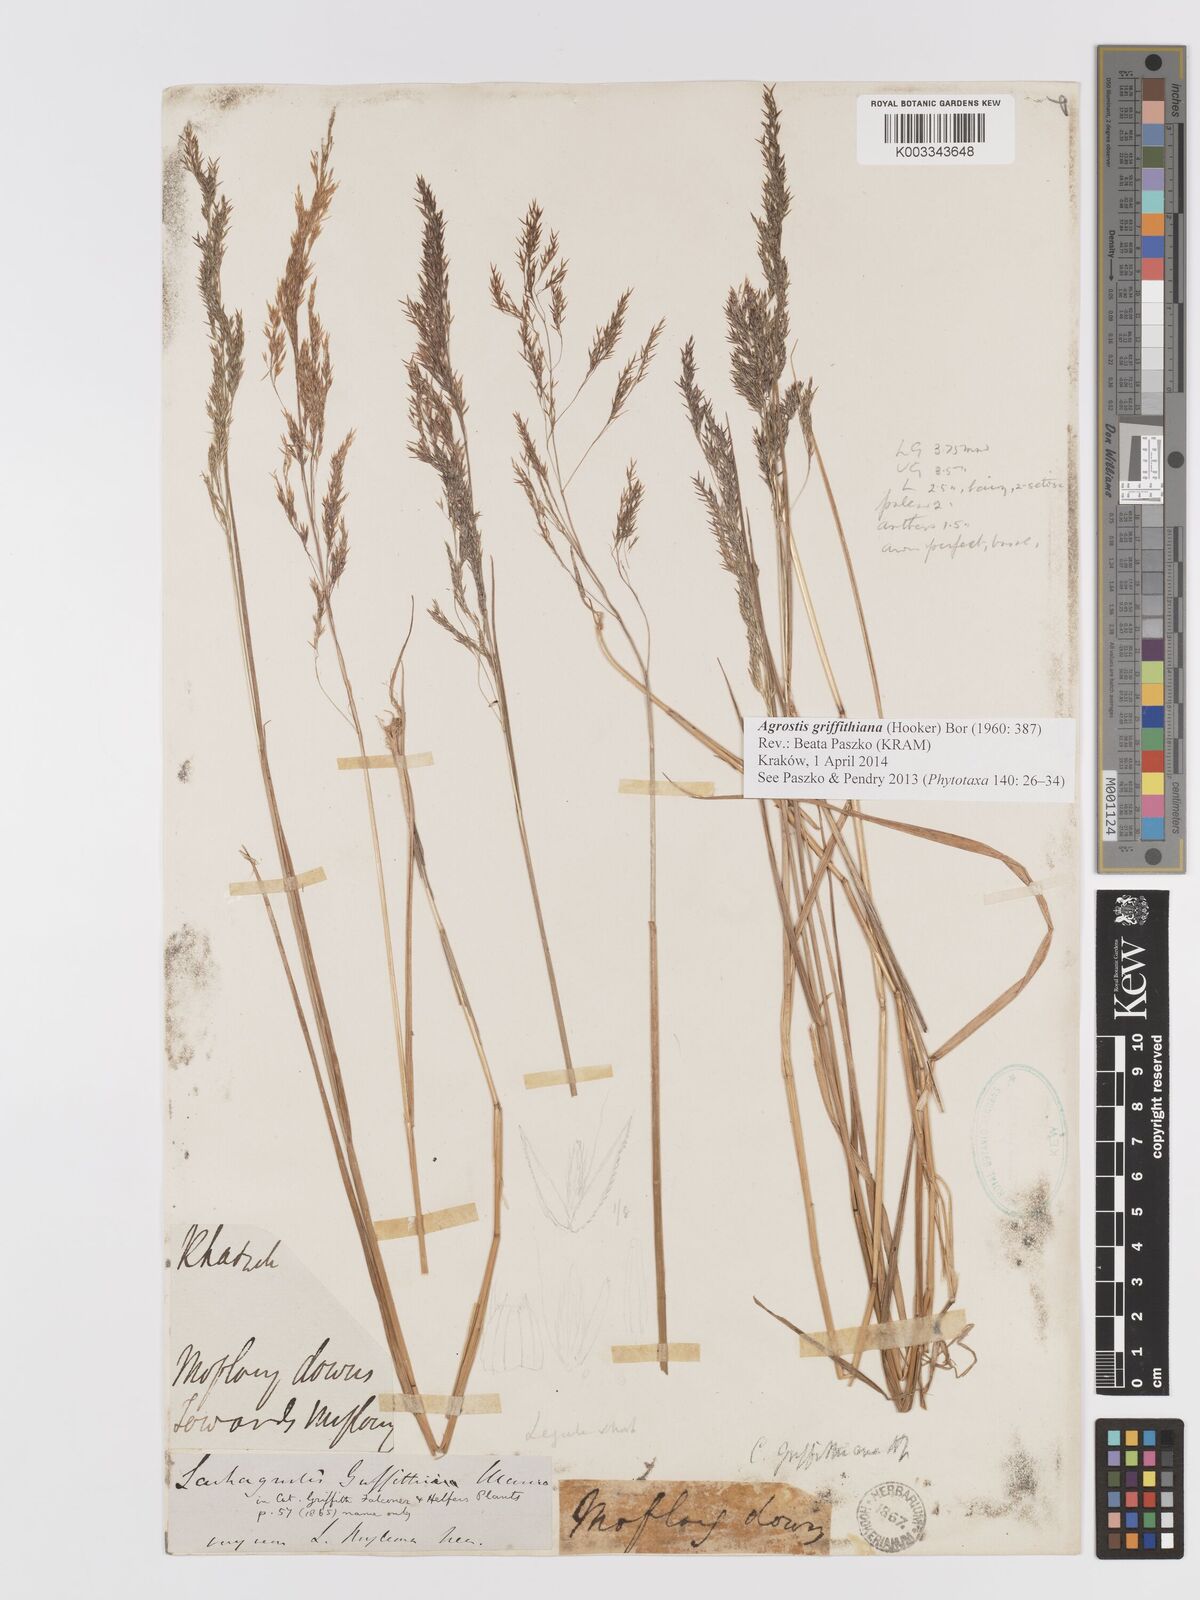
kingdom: Plantae
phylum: Tracheophyta
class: Liliopsida
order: Poales
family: Poaceae
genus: Agrostis
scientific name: Agrostis griffithiana
